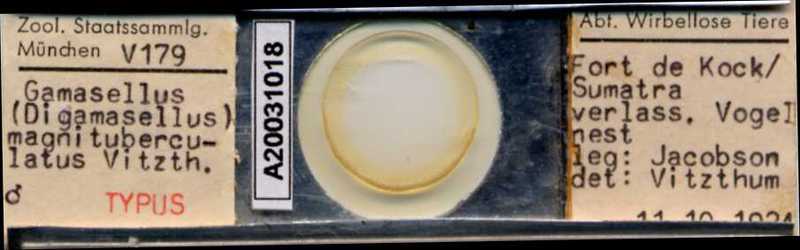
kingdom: Animalia
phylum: Arthropoda
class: Arachnida
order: Mesostigmata
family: Ascidae
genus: Asca
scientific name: Asca magnituberculata
